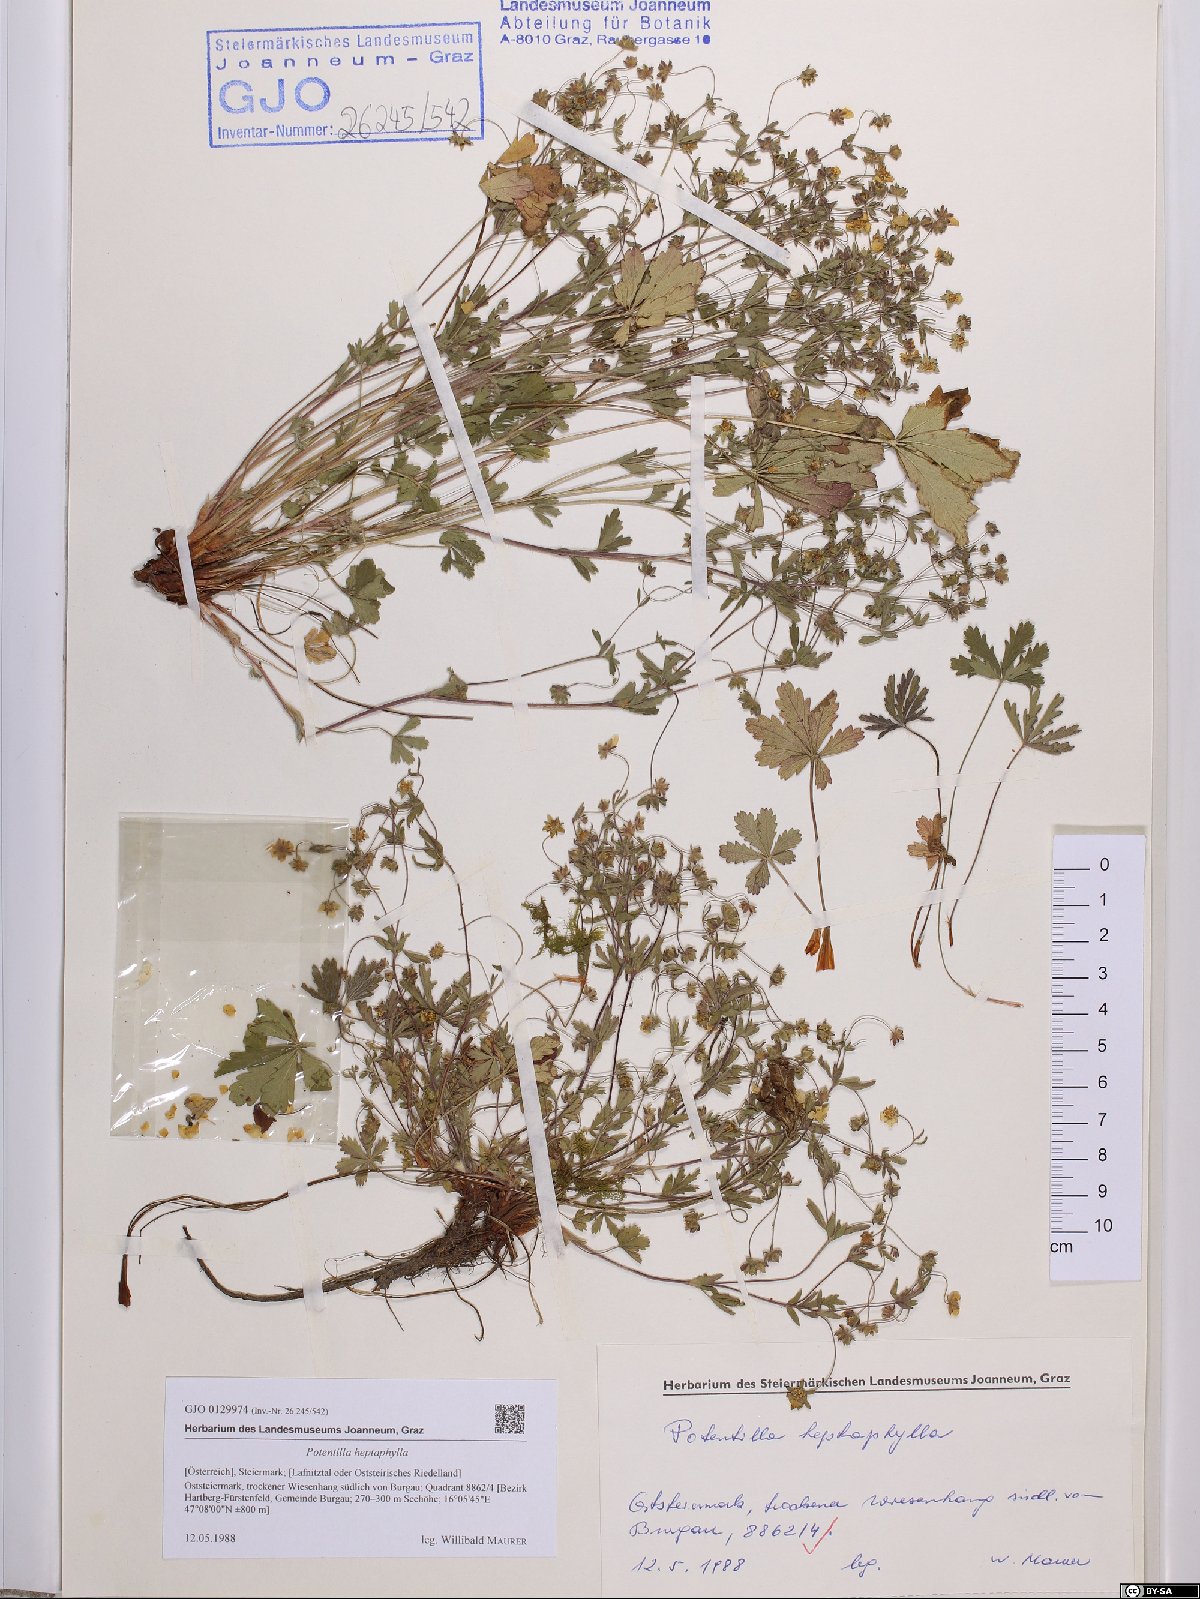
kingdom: Plantae
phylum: Tracheophyta
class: Magnoliopsida
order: Rosales
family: Rosaceae
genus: Potentilla
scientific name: Potentilla heptaphylla
